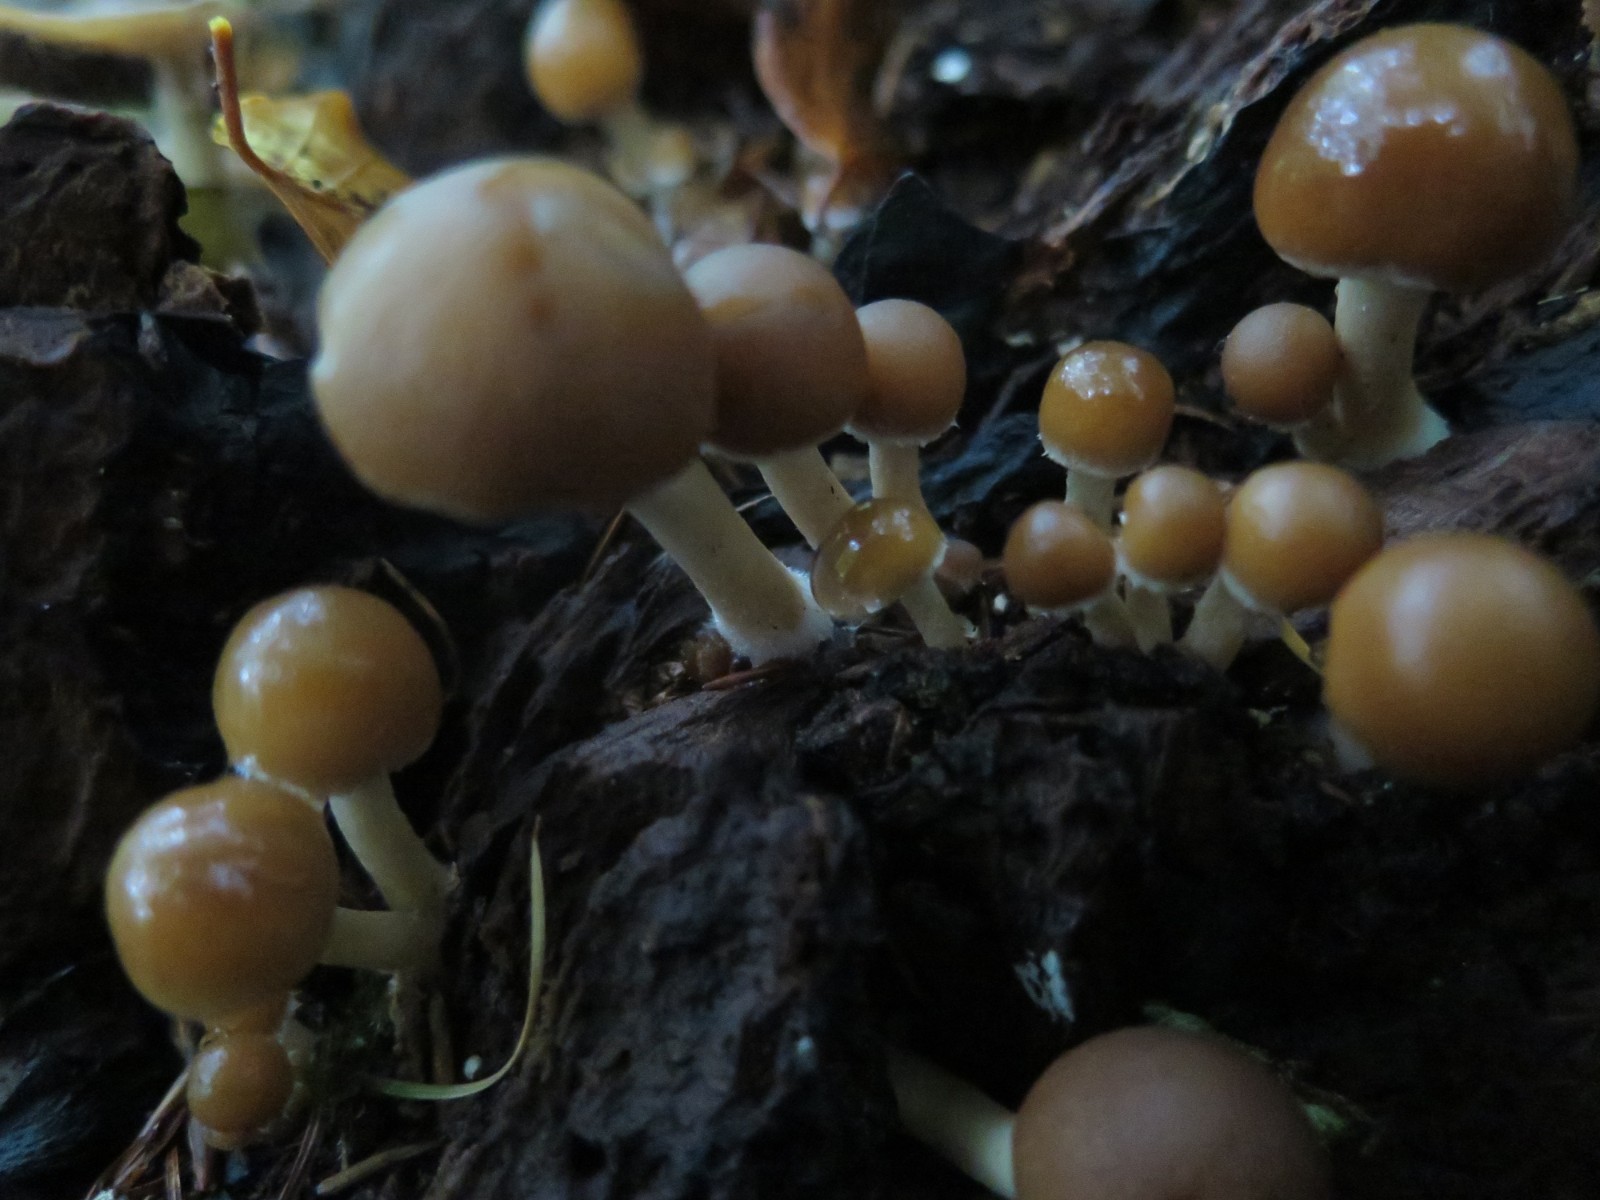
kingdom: Fungi
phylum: Basidiomycota
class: Agaricomycetes
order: Agaricales
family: Psathyrellaceae
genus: Psathyrella
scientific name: Psathyrella piluliformis
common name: lysstokket mørkhat
